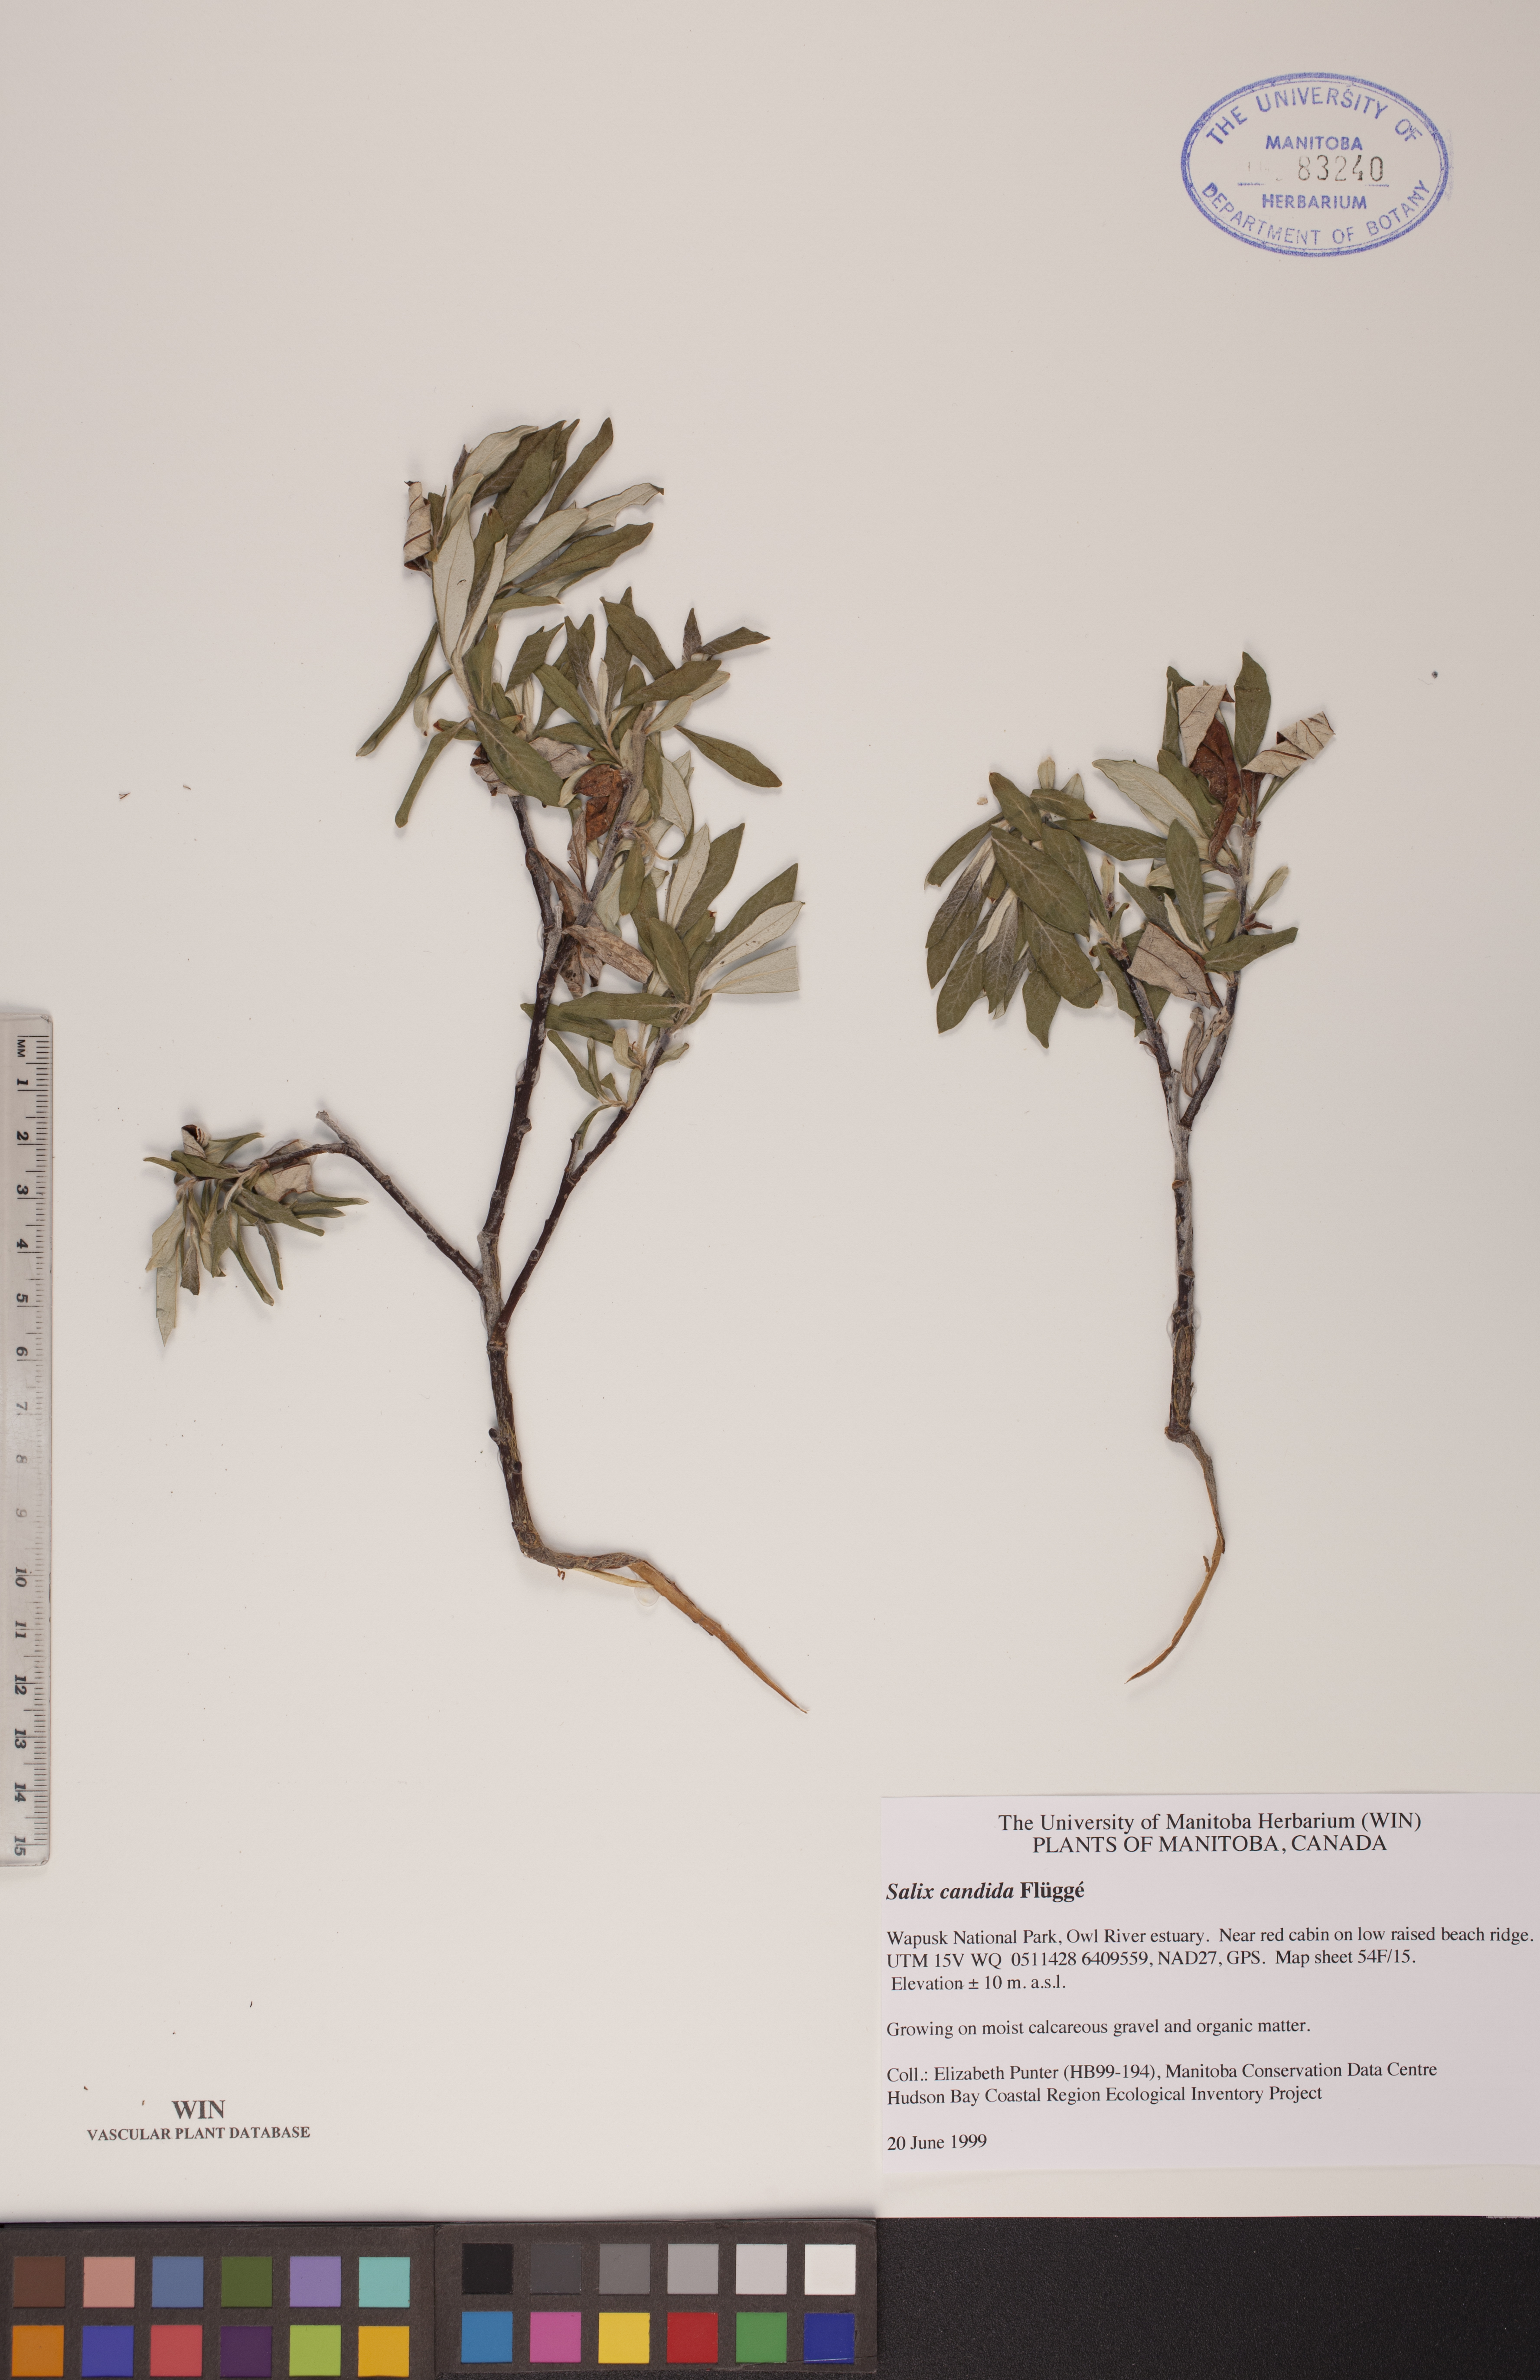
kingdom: Plantae
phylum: Tracheophyta
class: Magnoliopsida
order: Malpighiales
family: Salicaceae
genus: Salix
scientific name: Salix candida
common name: Hoary willow
